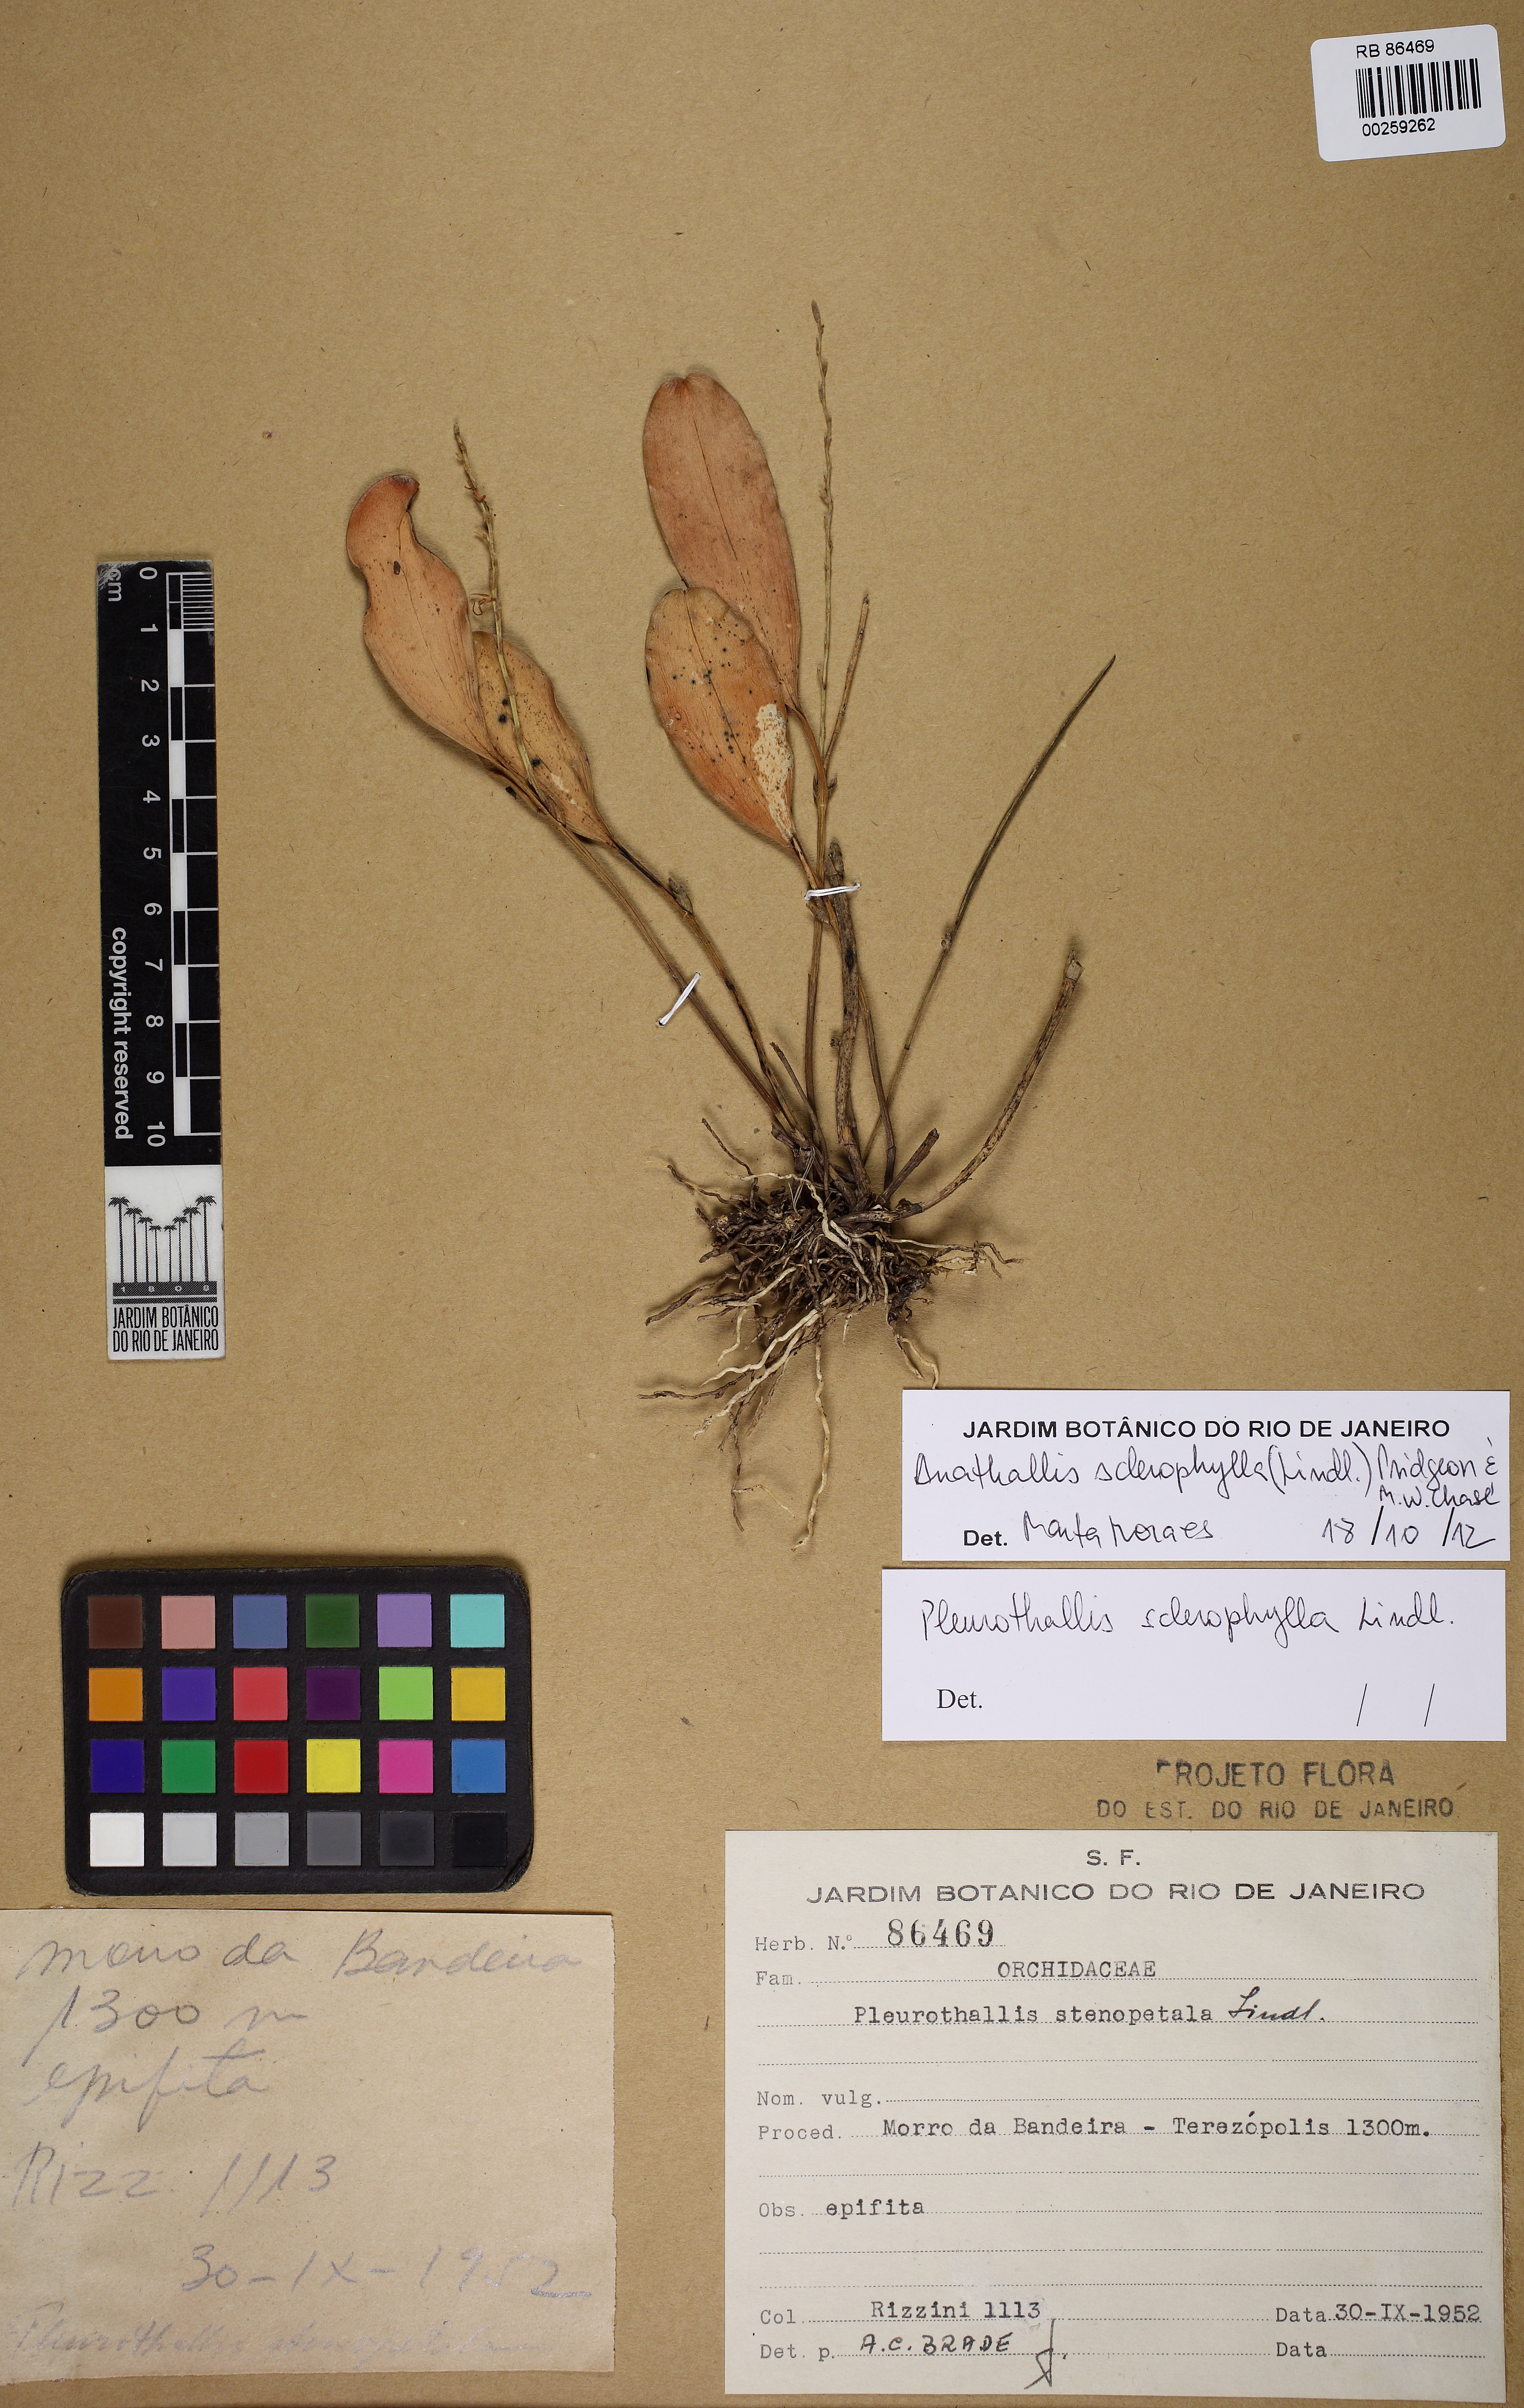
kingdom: Plantae
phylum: Tracheophyta
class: Liliopsida
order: Asparagales
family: Orchidaceae
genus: Stelis
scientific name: Stelis sclerophylla
